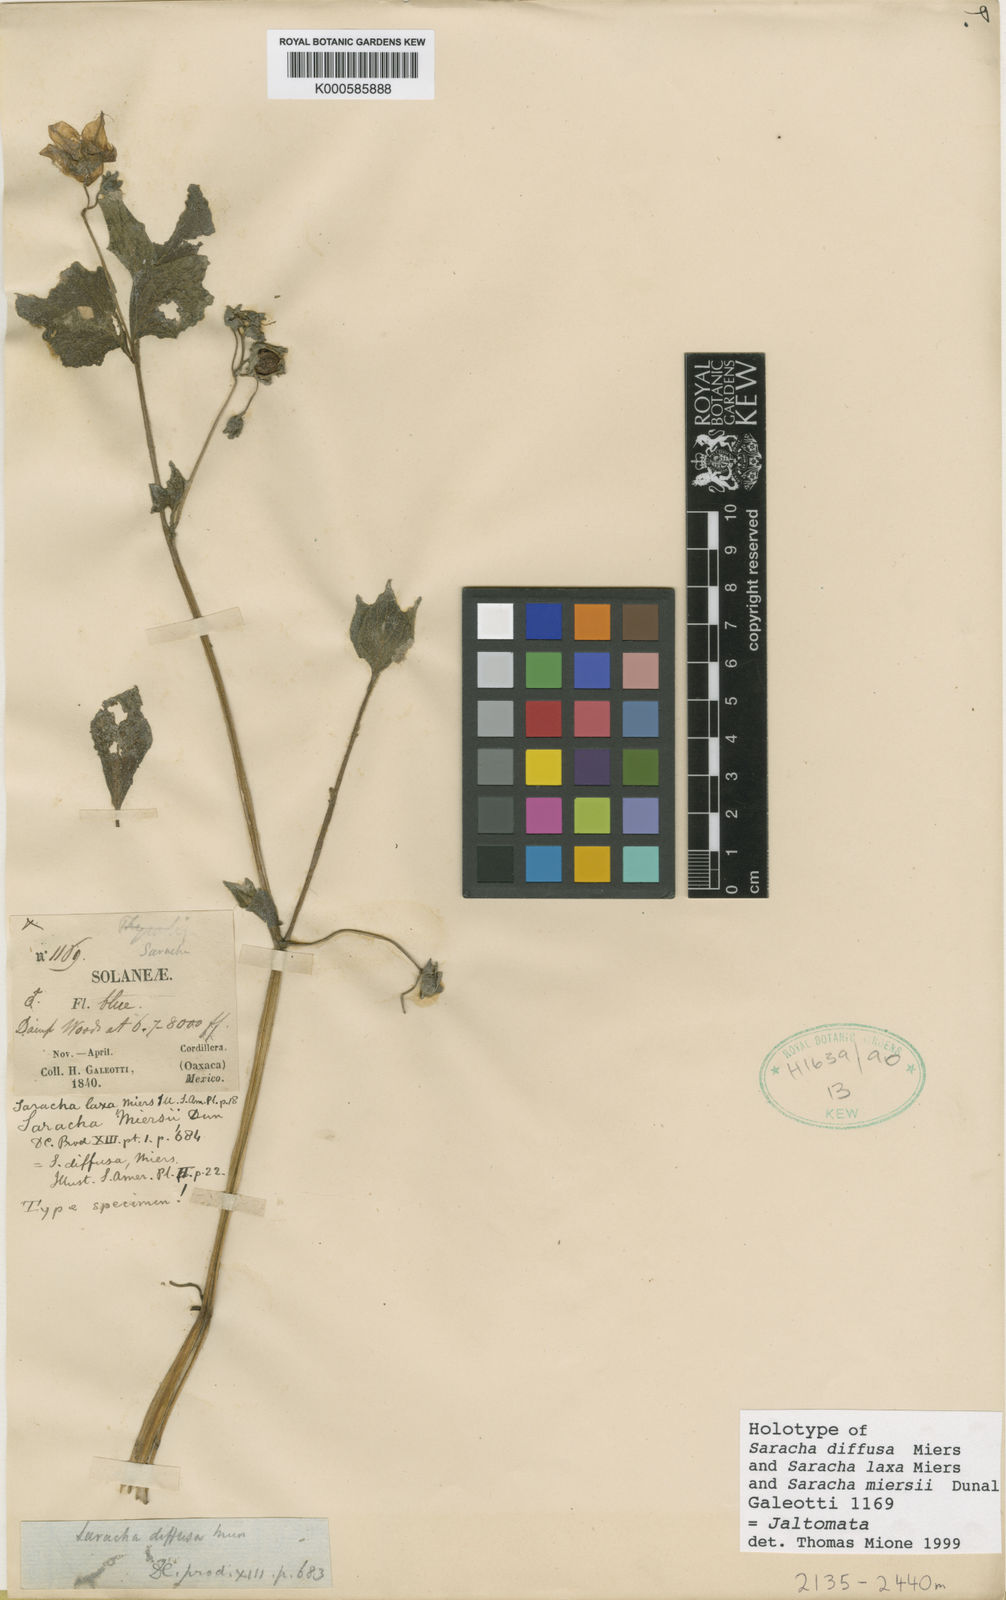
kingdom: Plantae
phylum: Tracheophyta
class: Magnoliopsida
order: Solanales
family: Solanaceae
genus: Jaltomata
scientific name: Jaltomata
